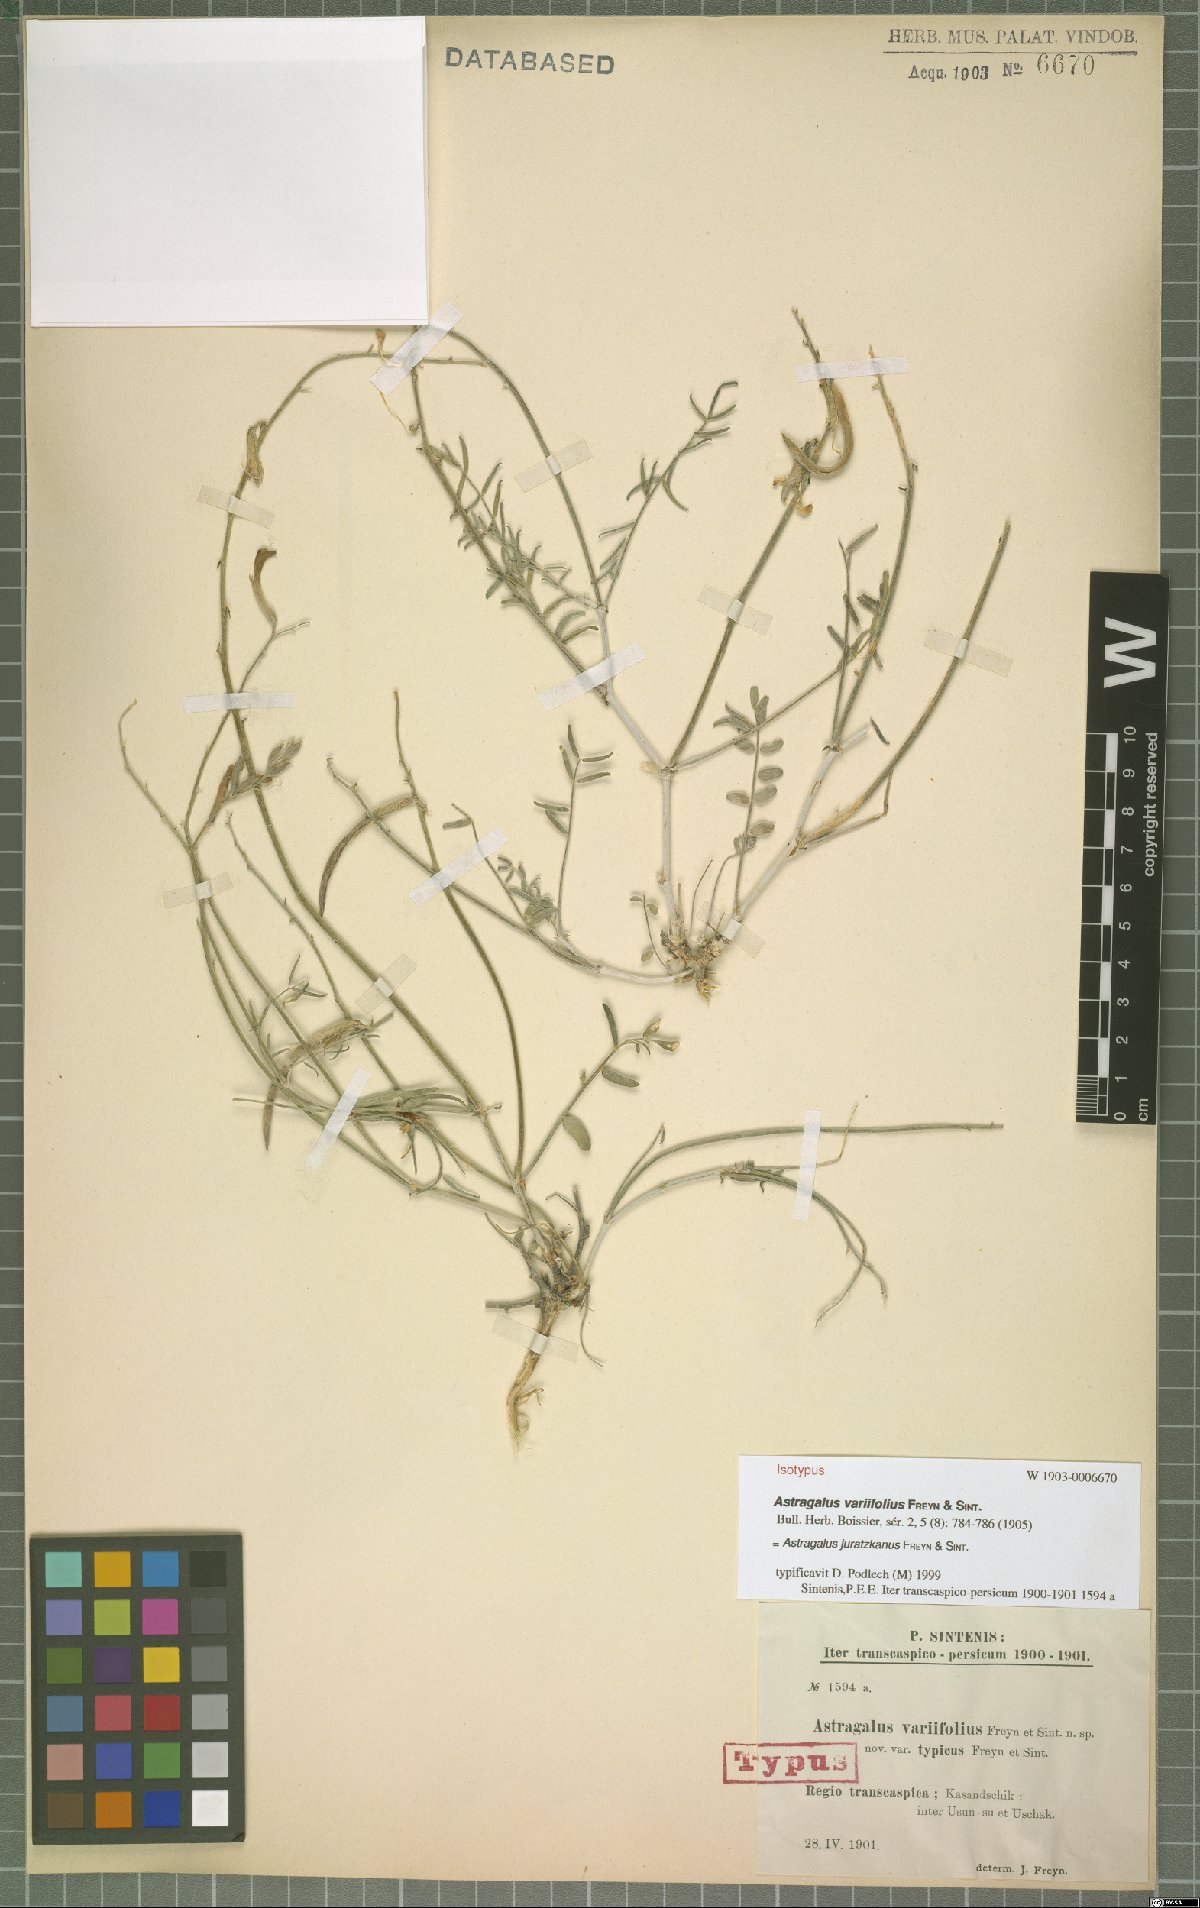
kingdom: Plantae
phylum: Tracheophyta
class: Magnoliopsida
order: Fabales
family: Fabaceae
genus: Astragalus
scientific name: Astragalus juratzkanus
